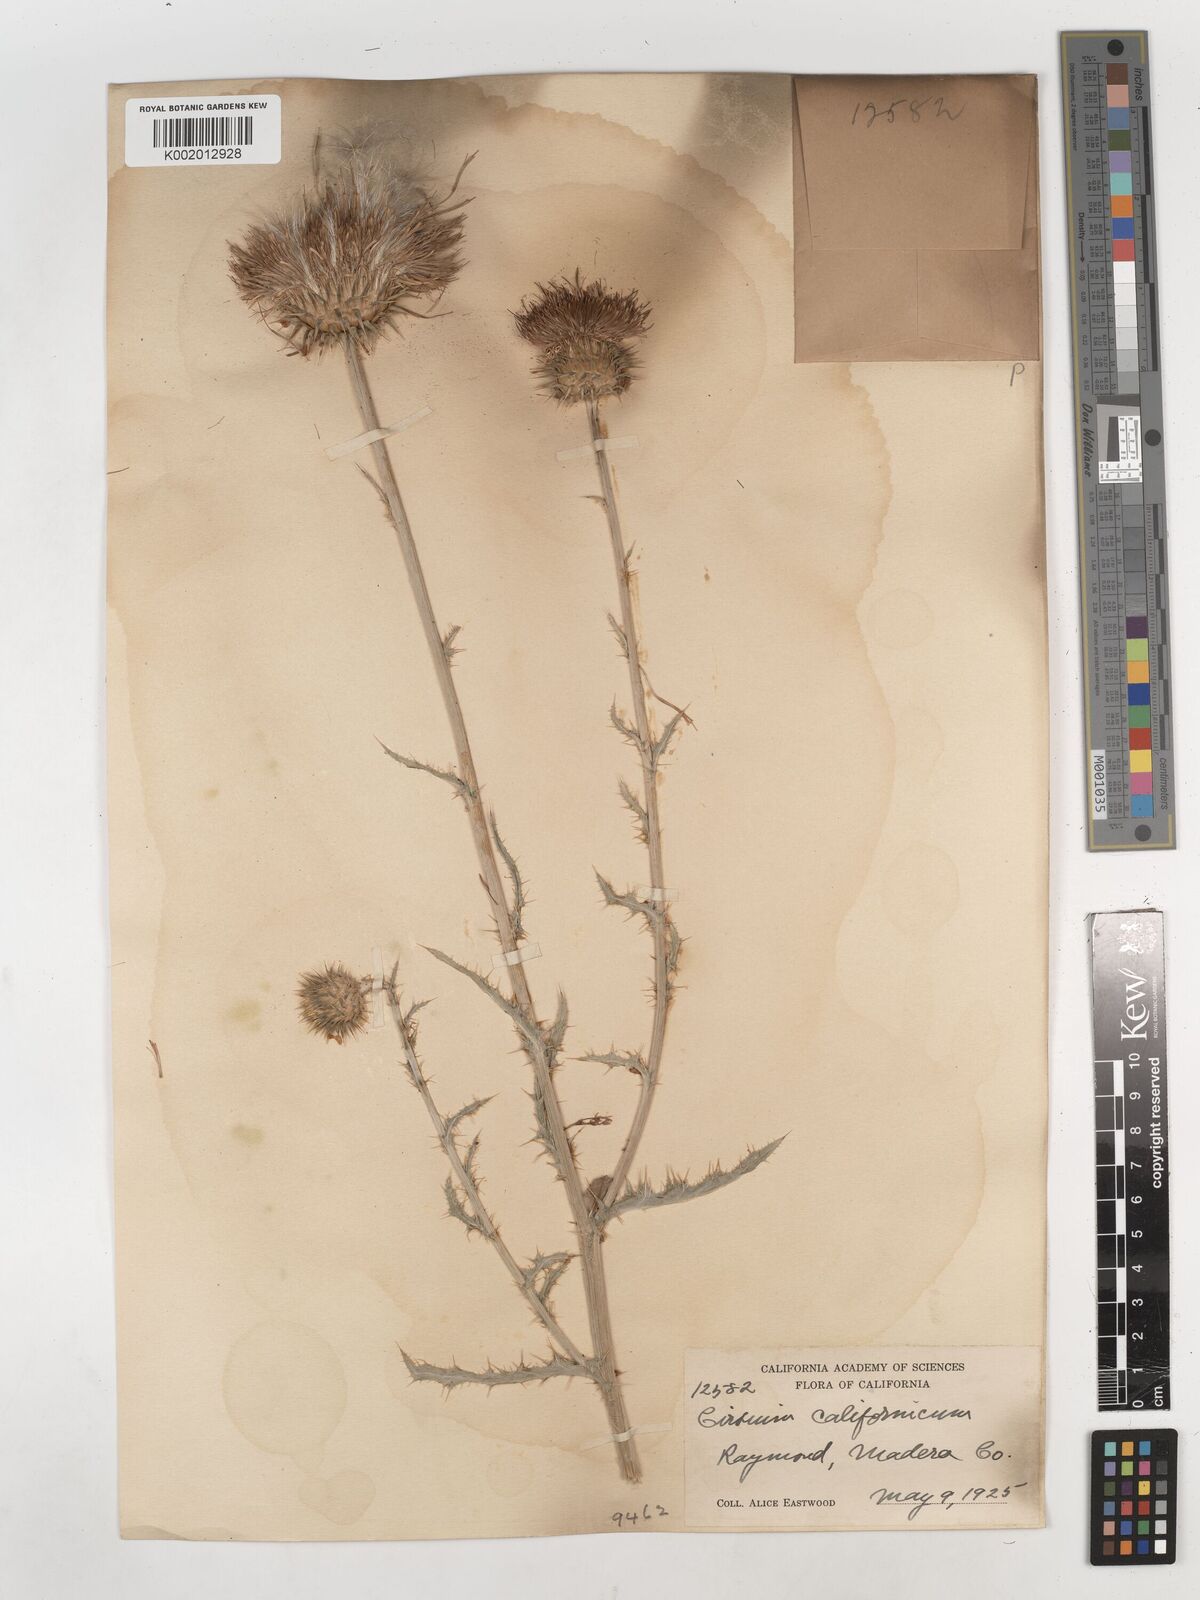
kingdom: Plantae
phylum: Tracheophyta
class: Magnoliopsida
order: Asterales
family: Asteraceae
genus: Cirsium
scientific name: Cirsium occidentale
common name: Western thistle
